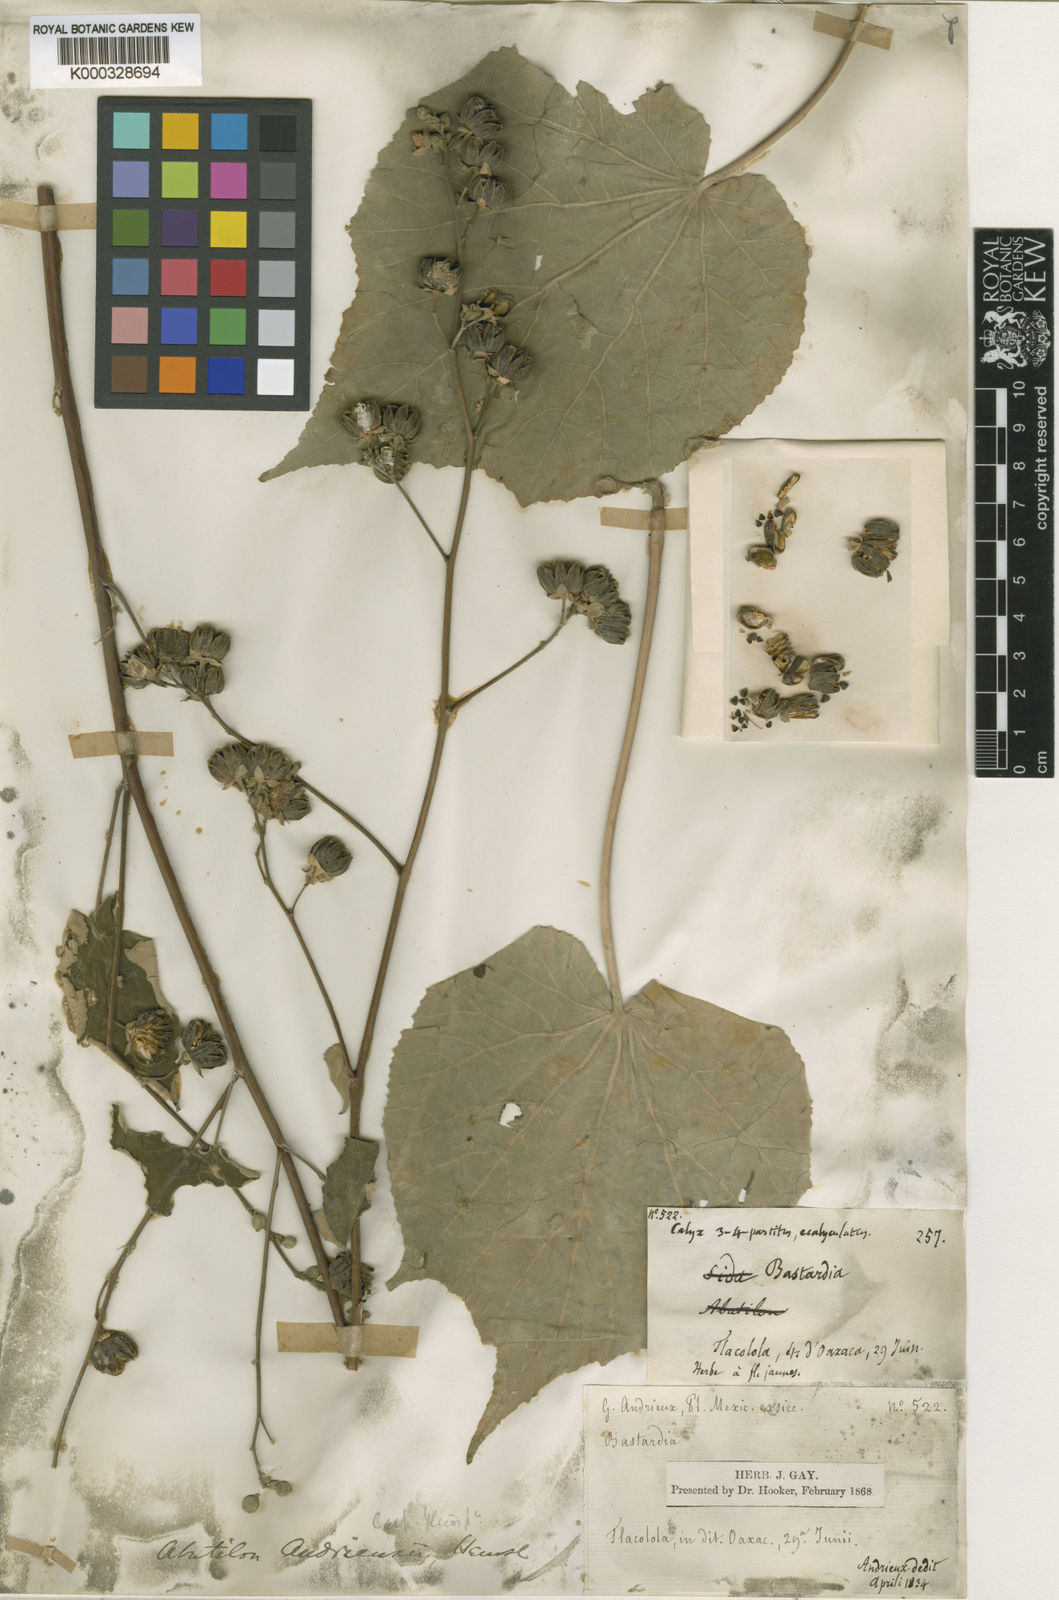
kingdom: Plantae
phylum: Tracheophyta
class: Magnoliopsida
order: Malvales
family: Malvaceae
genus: Abutilon
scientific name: Abutilon andrieuxii
